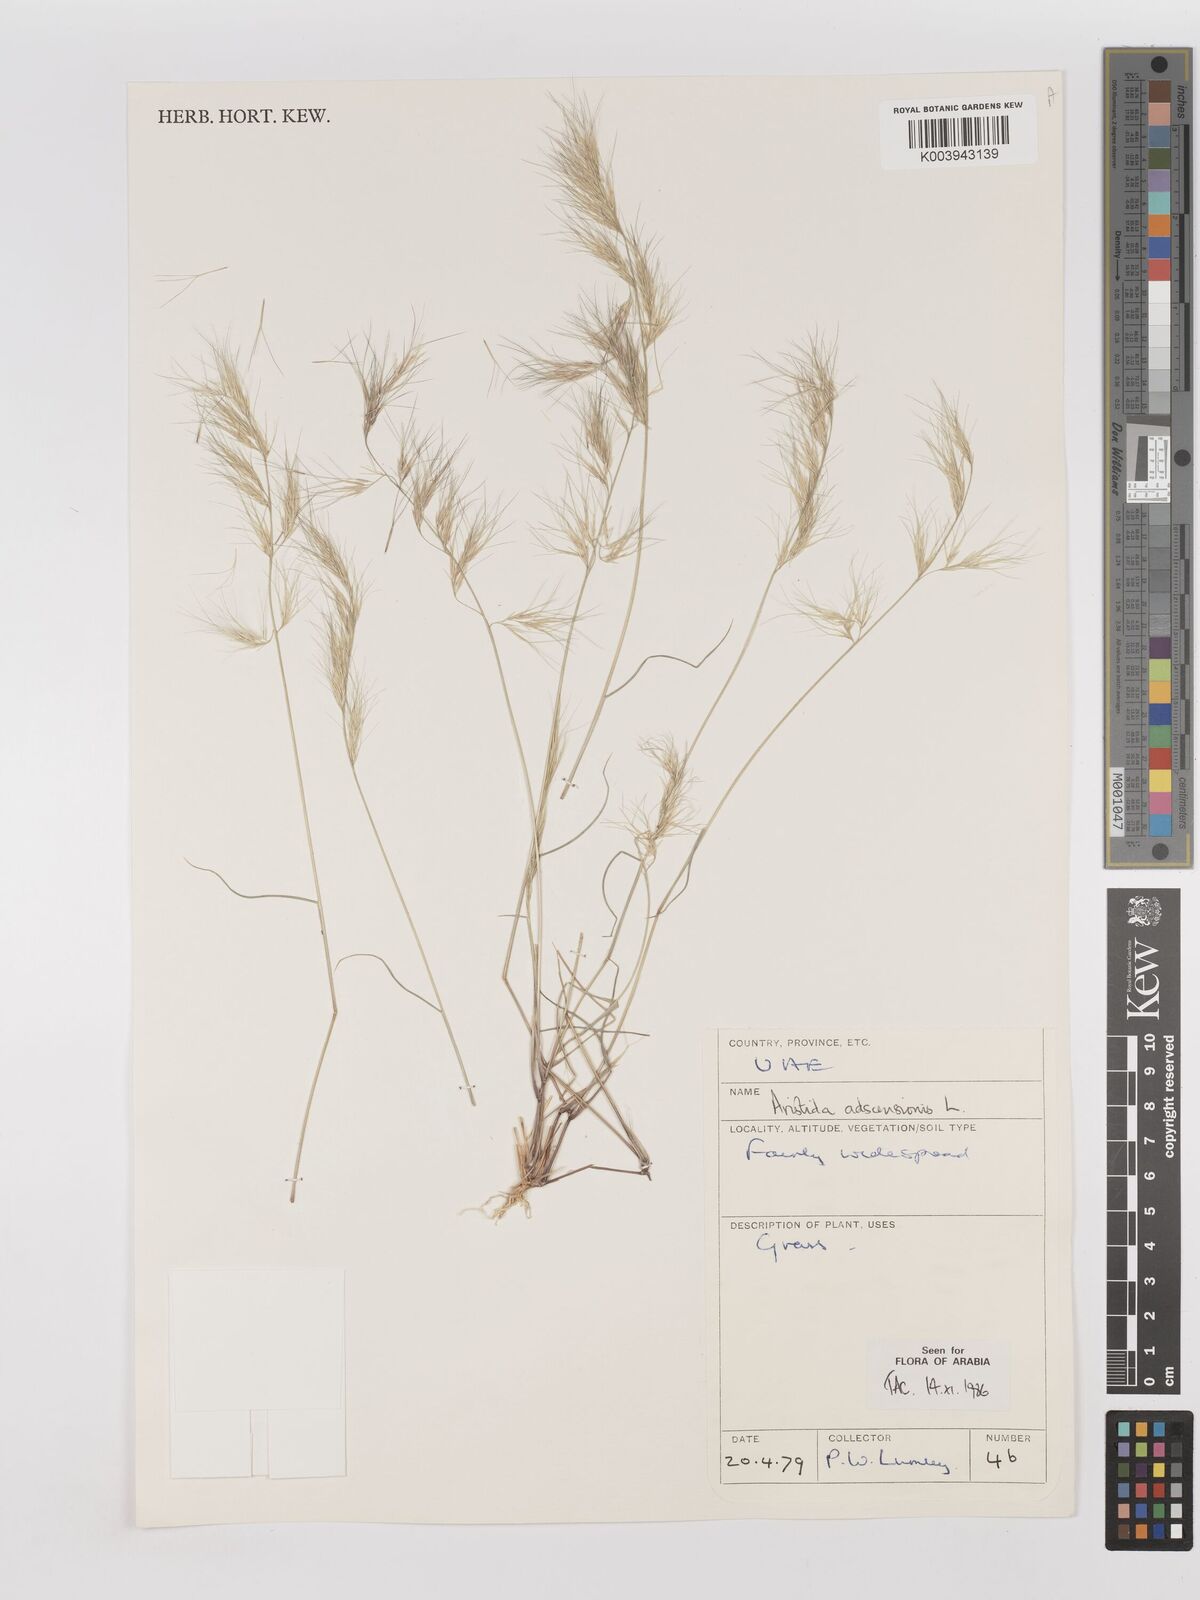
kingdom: Plantae
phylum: Tracheophyta
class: Liliopsida
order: Poales
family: Poaceae
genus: Aristida
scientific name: Aristida adscensionis
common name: Sixweeks threeawn
